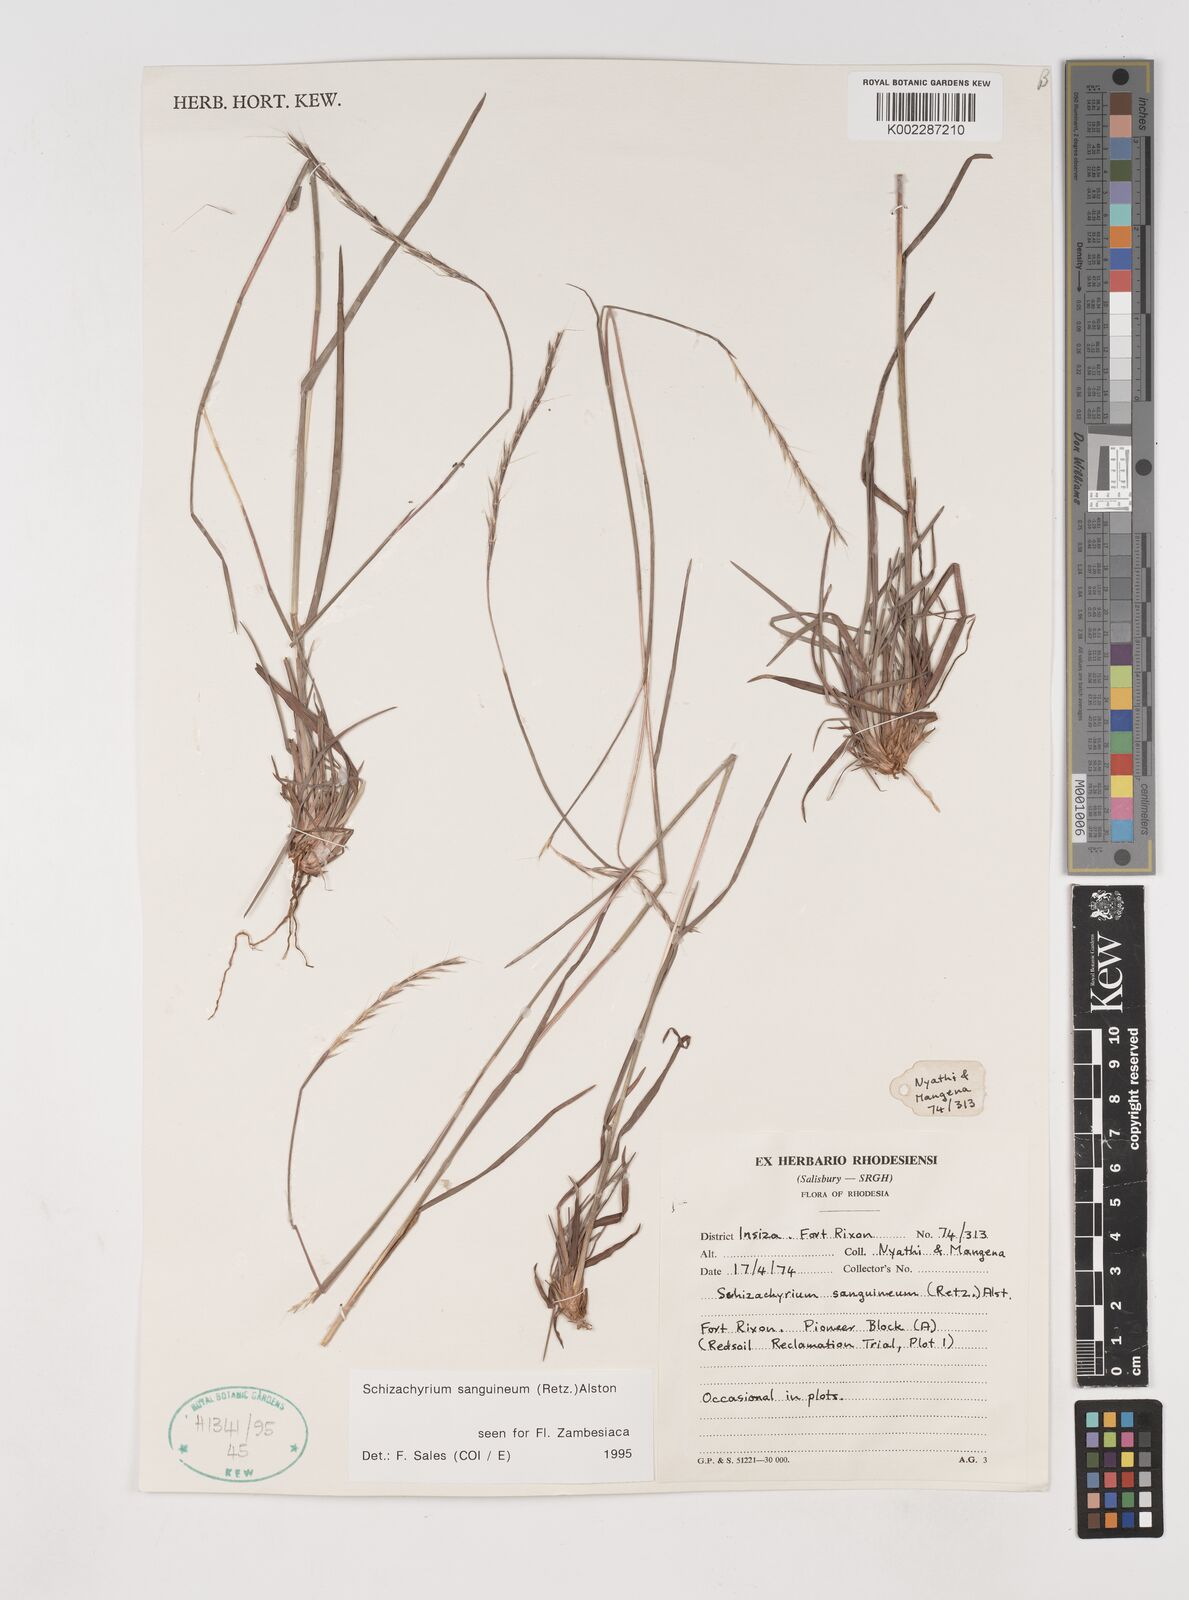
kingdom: Plantae
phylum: Tracheophyta
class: Liliopsida
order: Poales
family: Poaceae
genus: Schizachyrium
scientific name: Schizachyrium sanguineum
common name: Crimson bluestem
